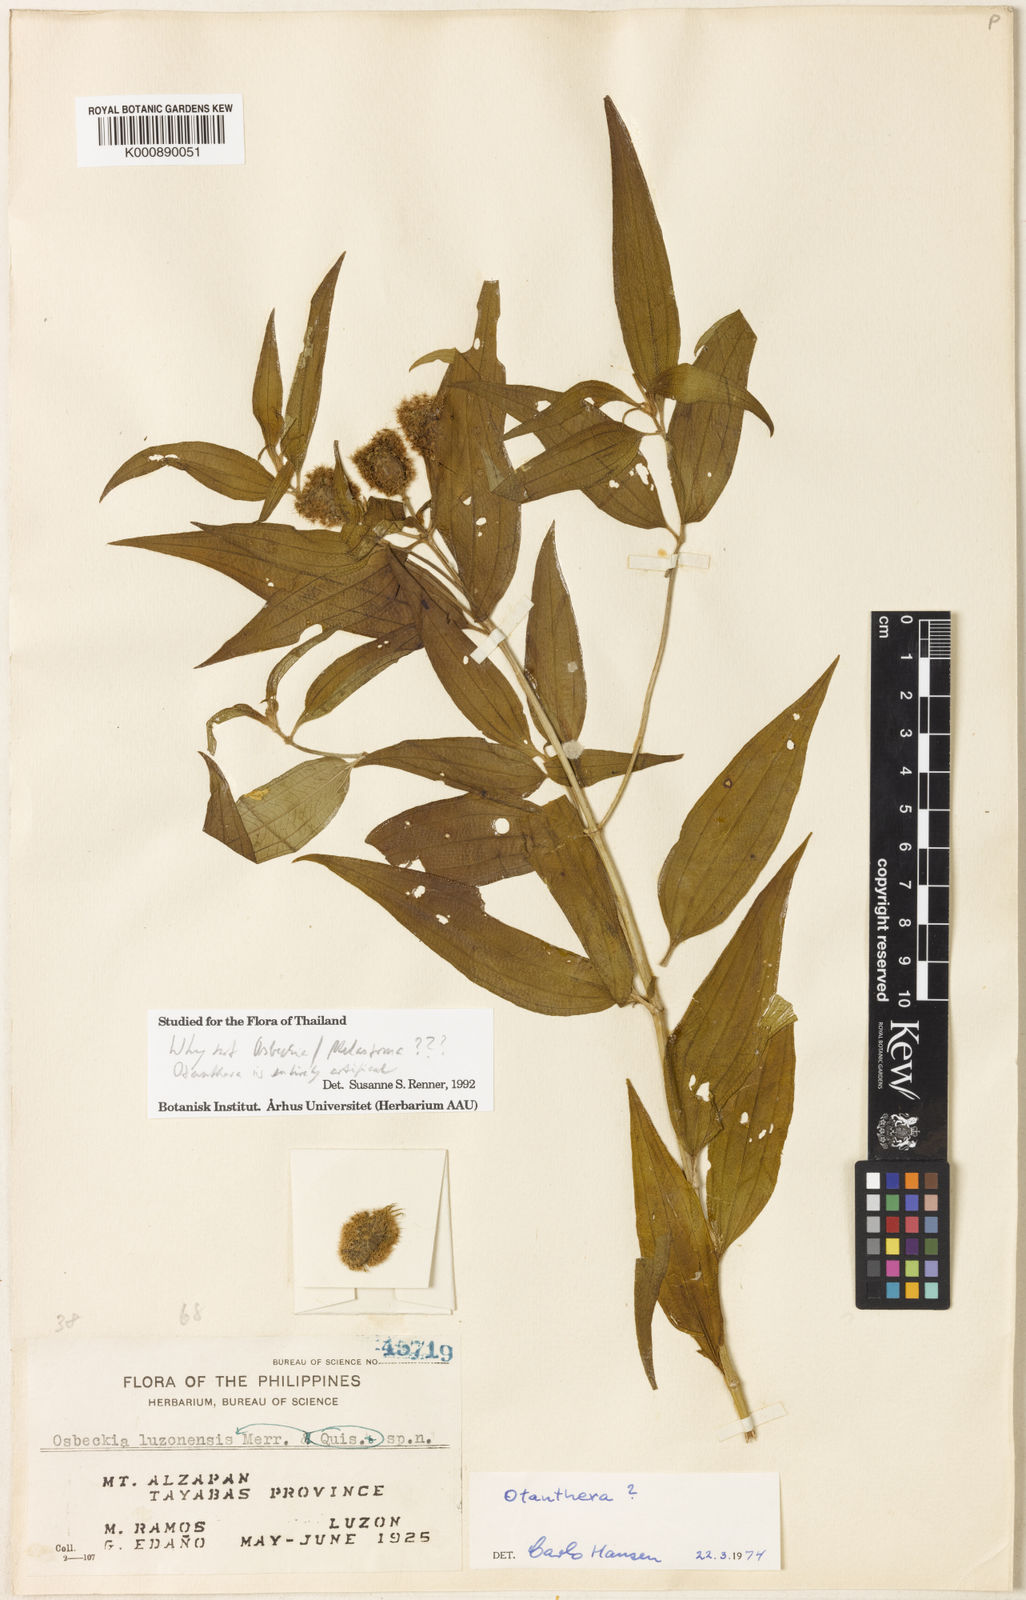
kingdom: Plantae
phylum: Tracheophyta
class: Magnoliopsida
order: Myrtales
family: Melastomataceae
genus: Melastoma
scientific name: Melastoma Otanthera luzoniensis
